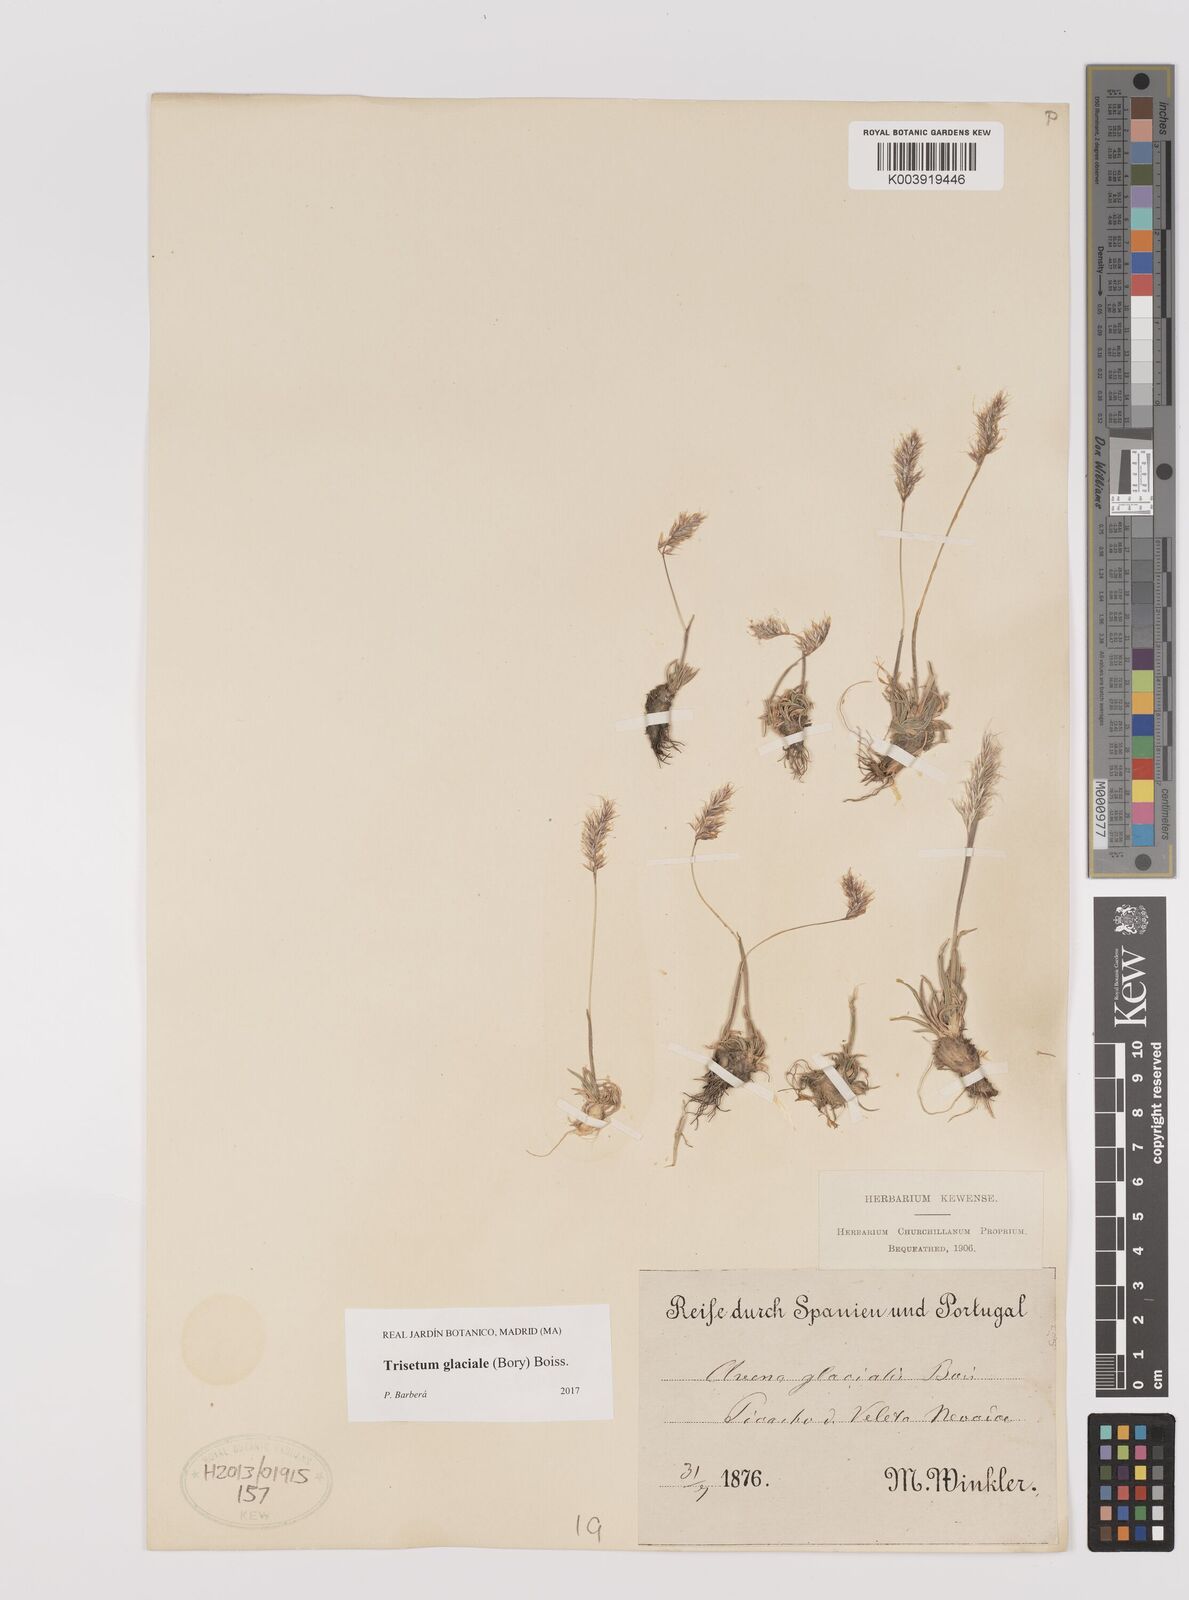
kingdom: Plantae
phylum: Tracheophyta
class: Liliopsida
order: Poales
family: Poaceae
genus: Acrospelion
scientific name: Acrospelion glaciale
